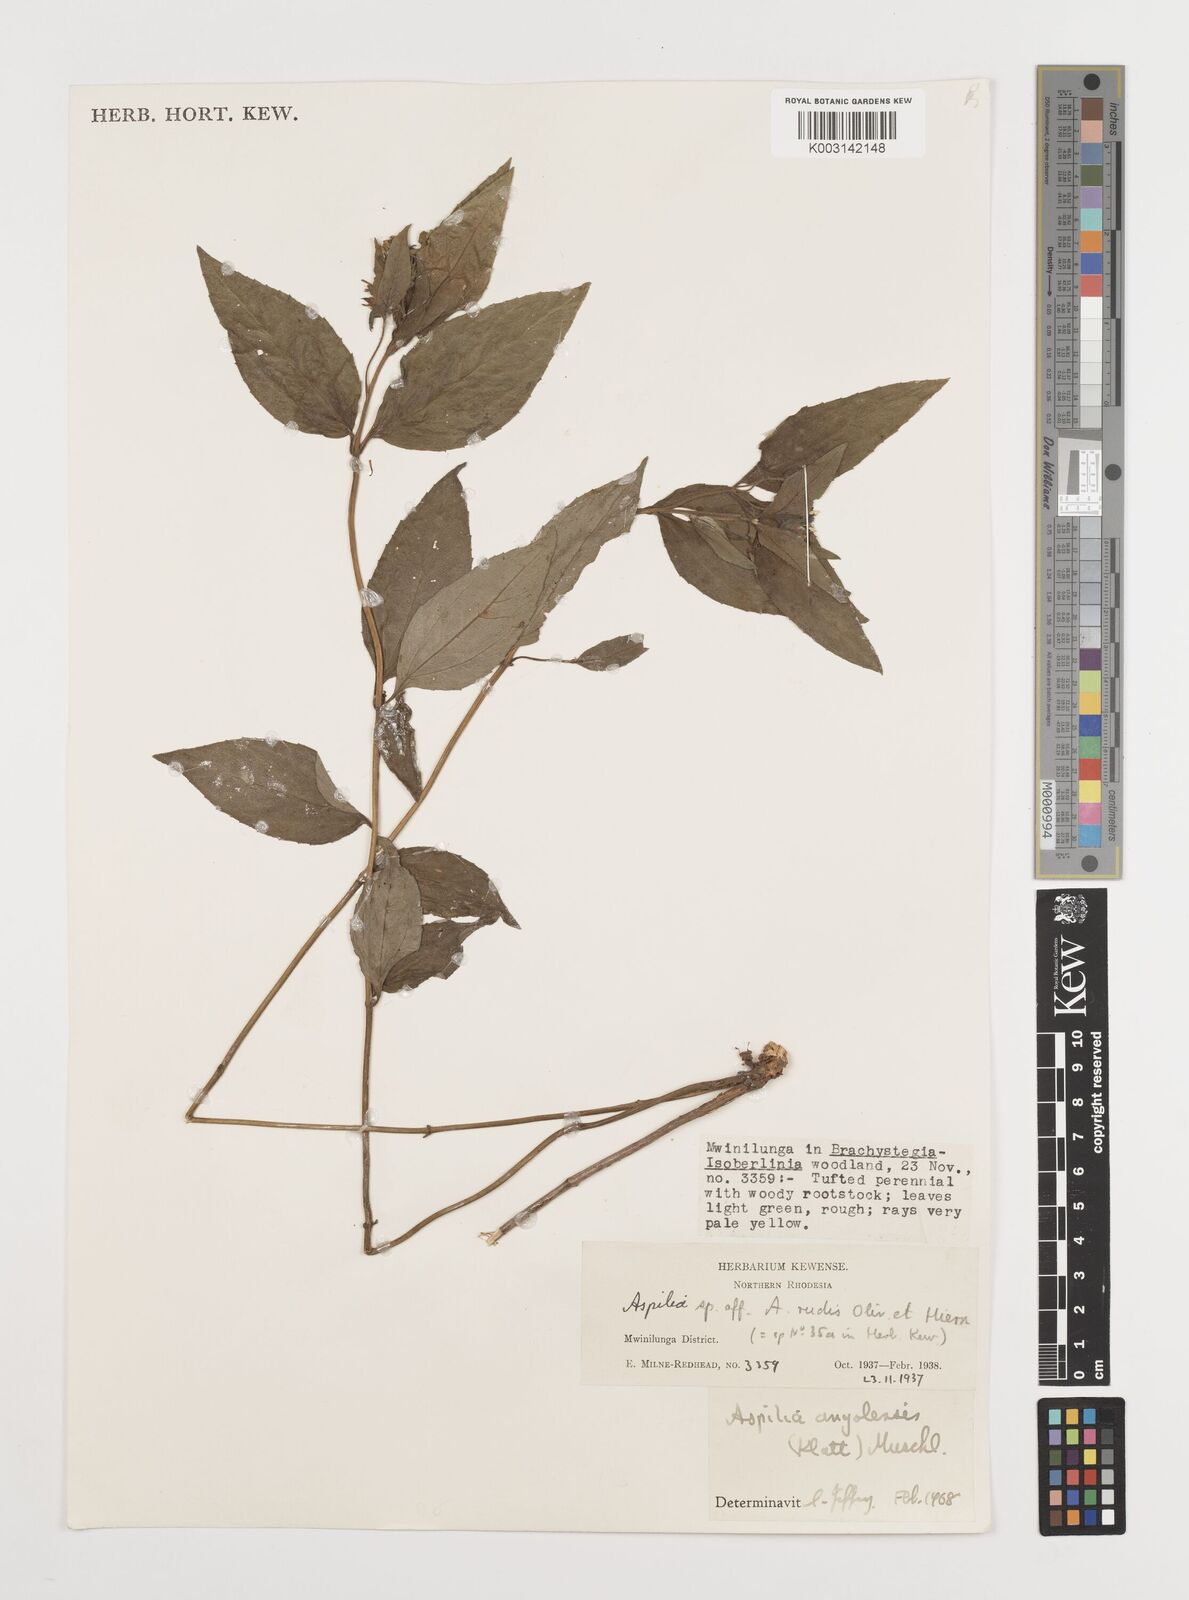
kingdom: Plantae
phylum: Tracheophyta
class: Magnoliopsida
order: Asterales
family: Asteraceae
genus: Aspilia
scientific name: Aspilia natalensis
